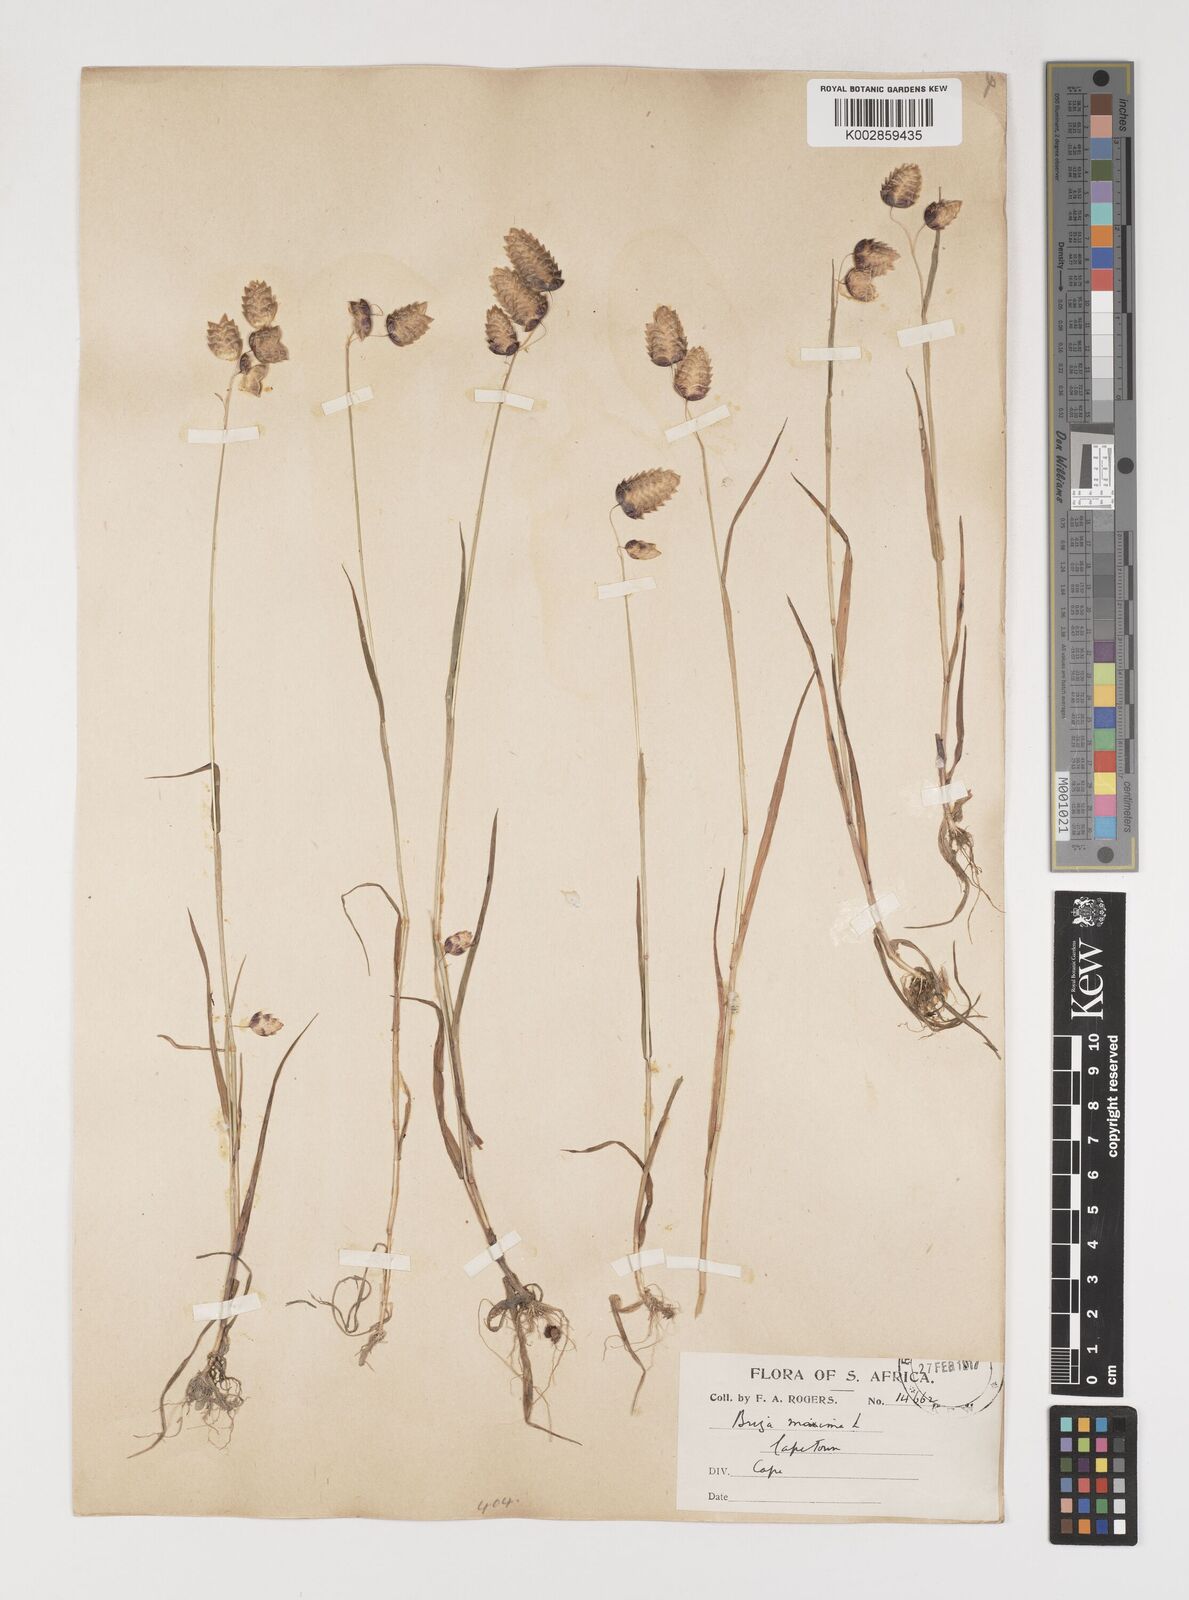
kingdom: Plantae
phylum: Tracheophyta
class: Liliopsida
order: Poales
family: Poaceae
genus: Briza
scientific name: Briza maxima
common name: Big quakinggrass
